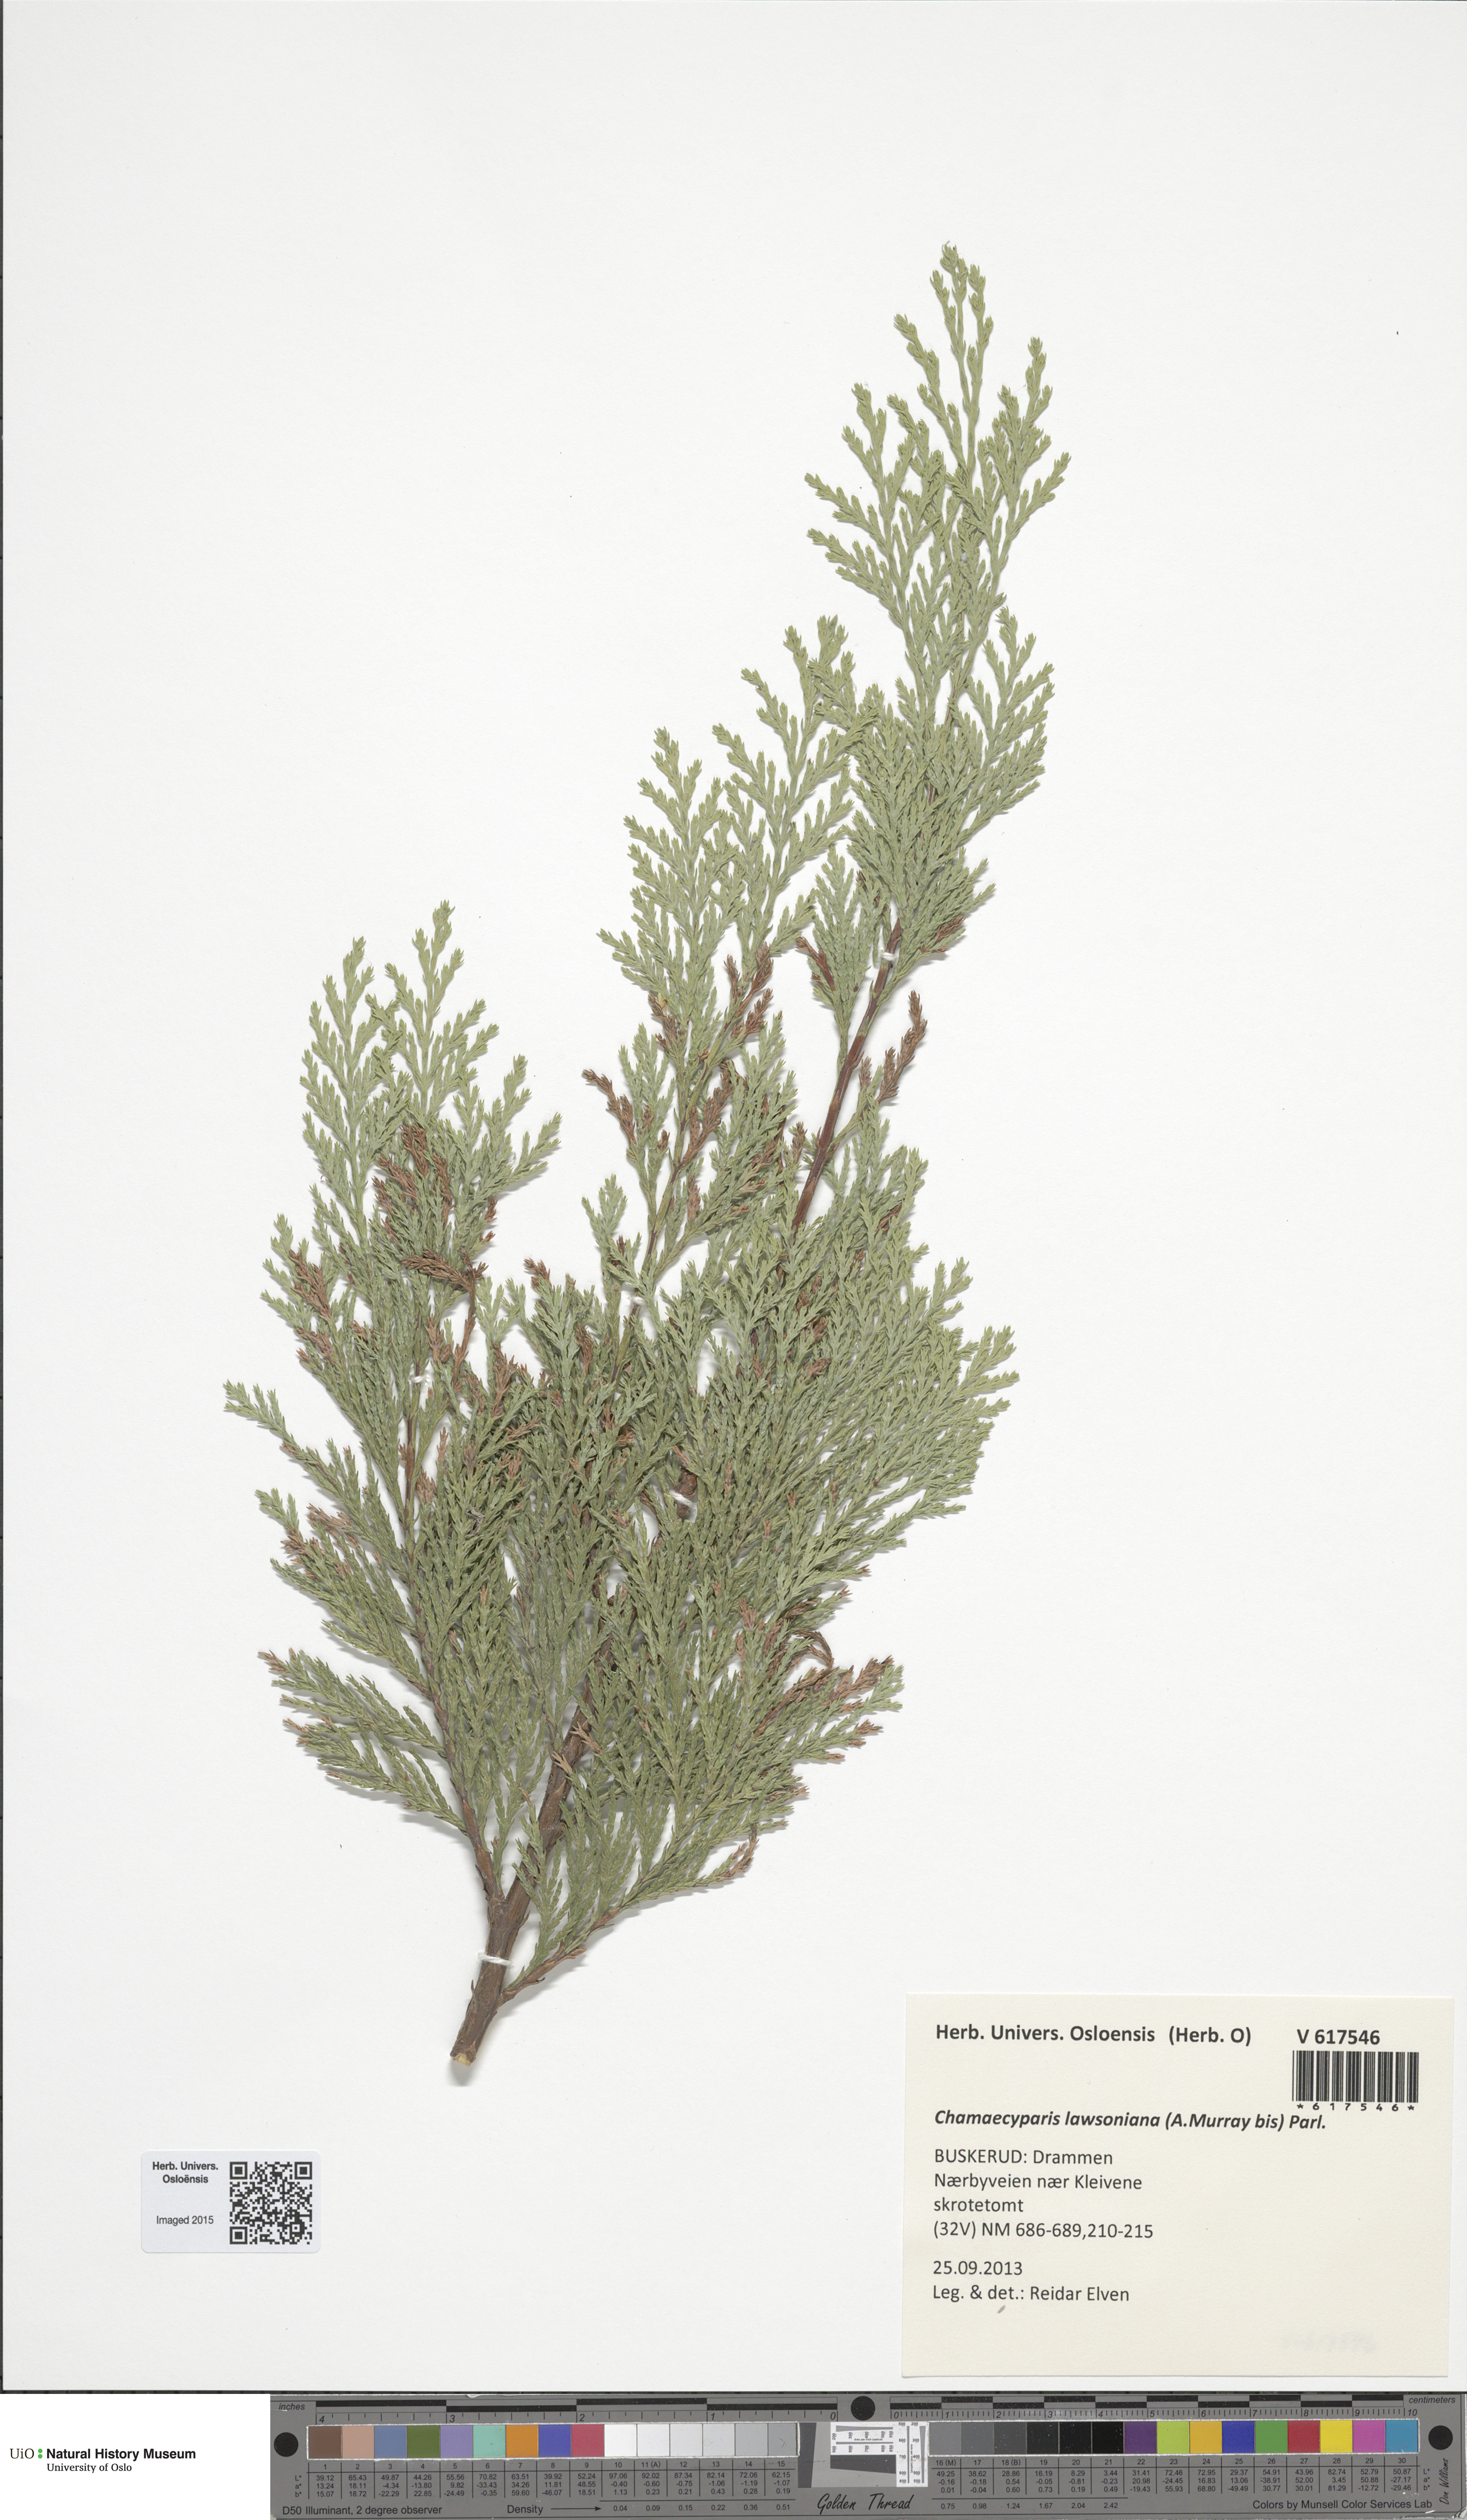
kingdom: Plantae
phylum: Tracheophyta
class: Pinopsida
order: Pinales
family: Cupressaceae
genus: Chamaecyparis
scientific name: Chamaecyparis lawsoniana
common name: Lawson's cypress
